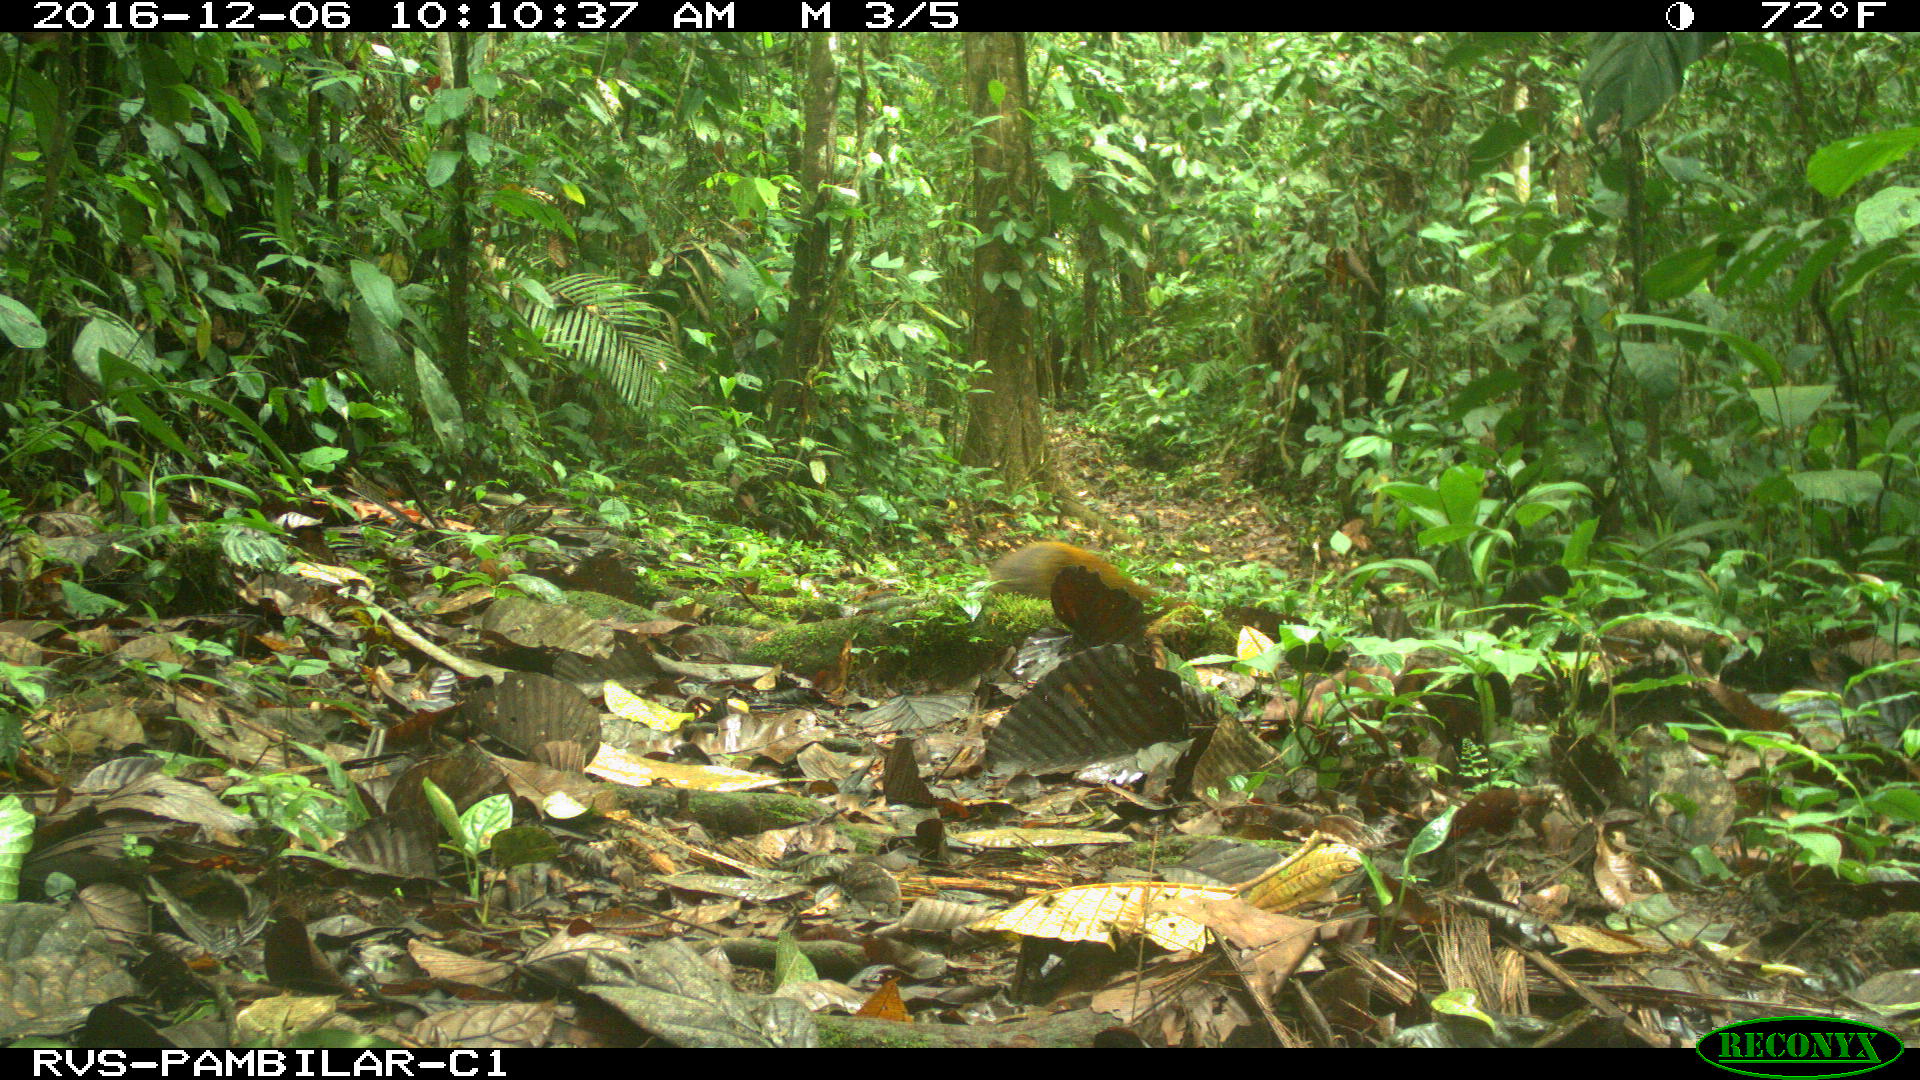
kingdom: Animalia
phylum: Chordata
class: Mammalia
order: Rodentia
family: Dasyproctidae
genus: Dasyprocta
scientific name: Dasyprocta punctata
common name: Central american agouti
